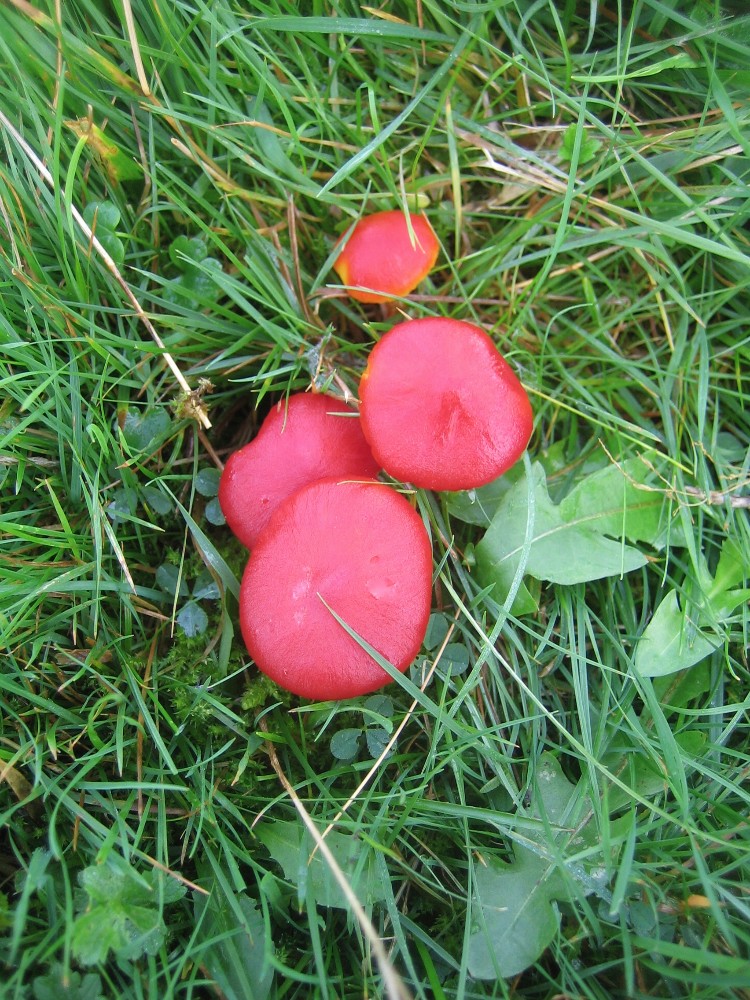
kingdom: Fungi
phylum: Basidiomycota
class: Agaricomycetes
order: Agaricales
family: Hygrophoraceae
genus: Hygrocybe
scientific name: Hygrocybe coccinea
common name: cinnober-vokshat
